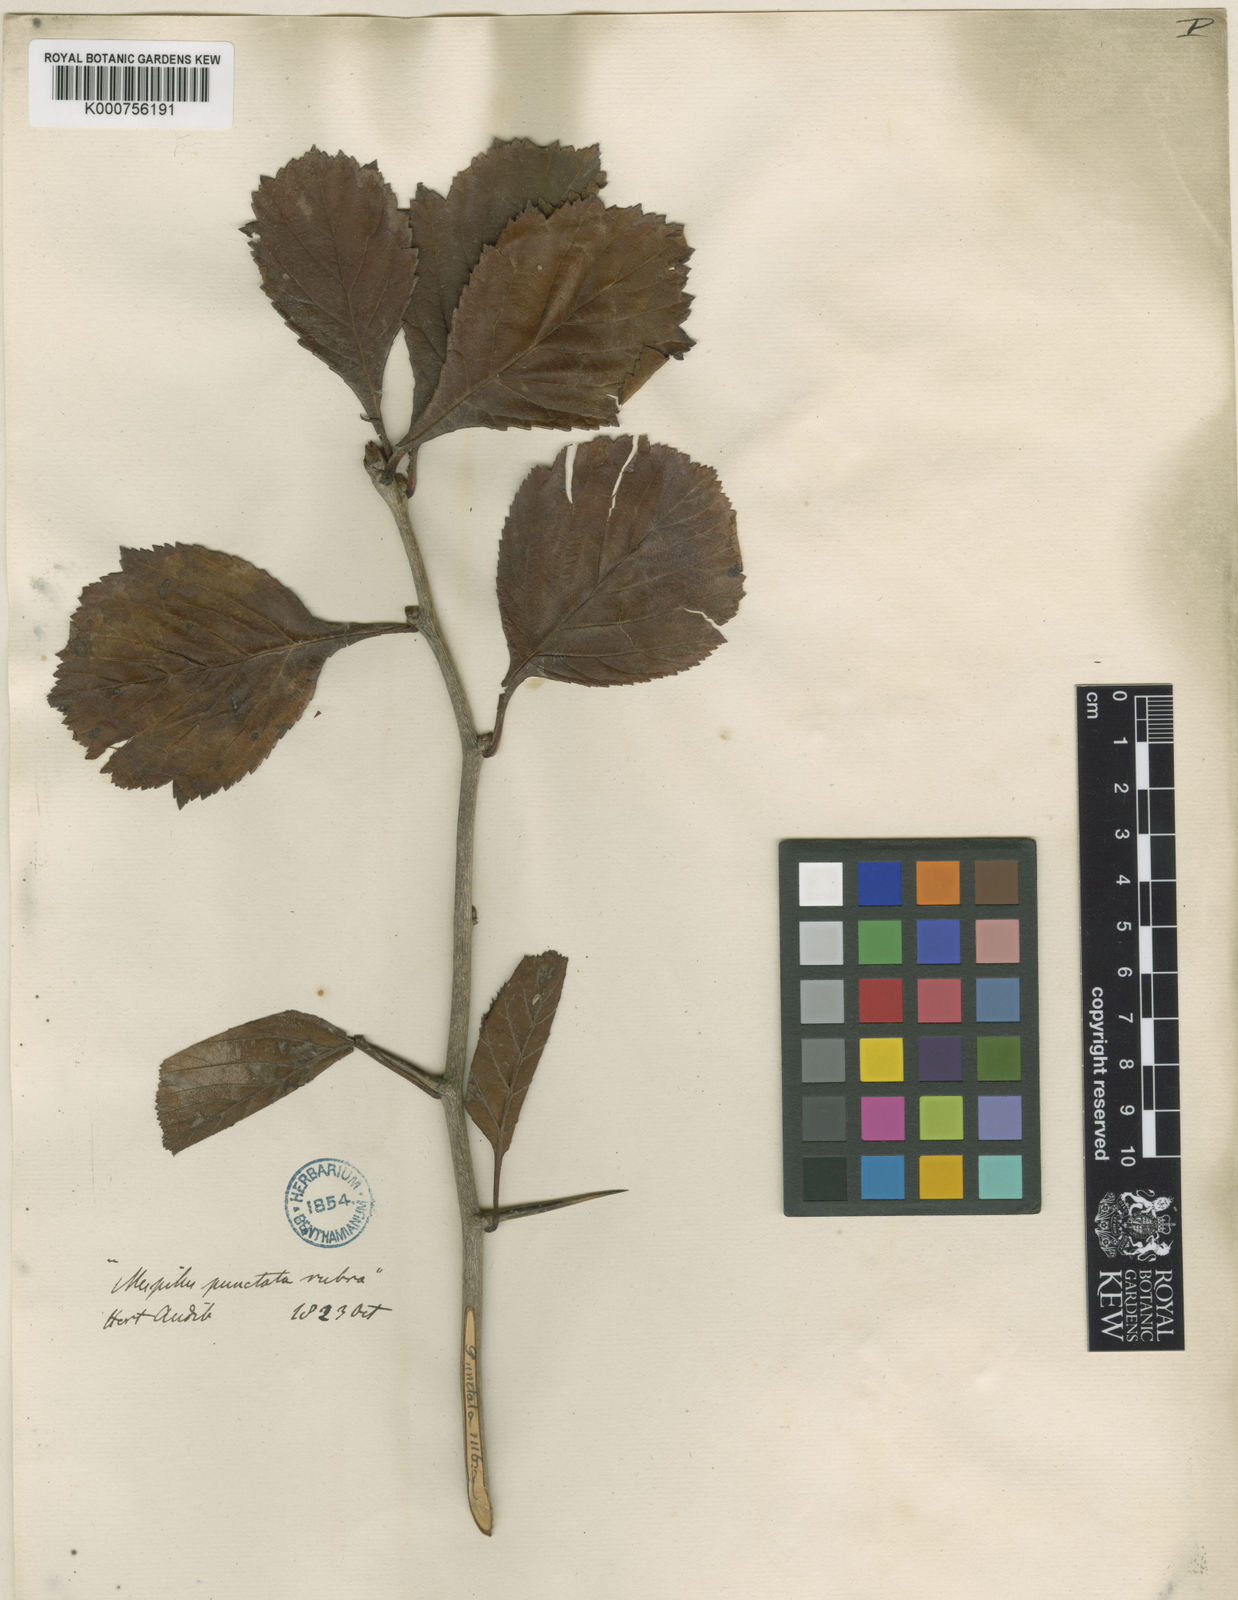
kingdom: Plantae
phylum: Tracheophyta
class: Magnoliopsida
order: Rosales
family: Rosaceae
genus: Crataegus
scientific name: Crataegus punctata
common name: Dotted hawthorn
